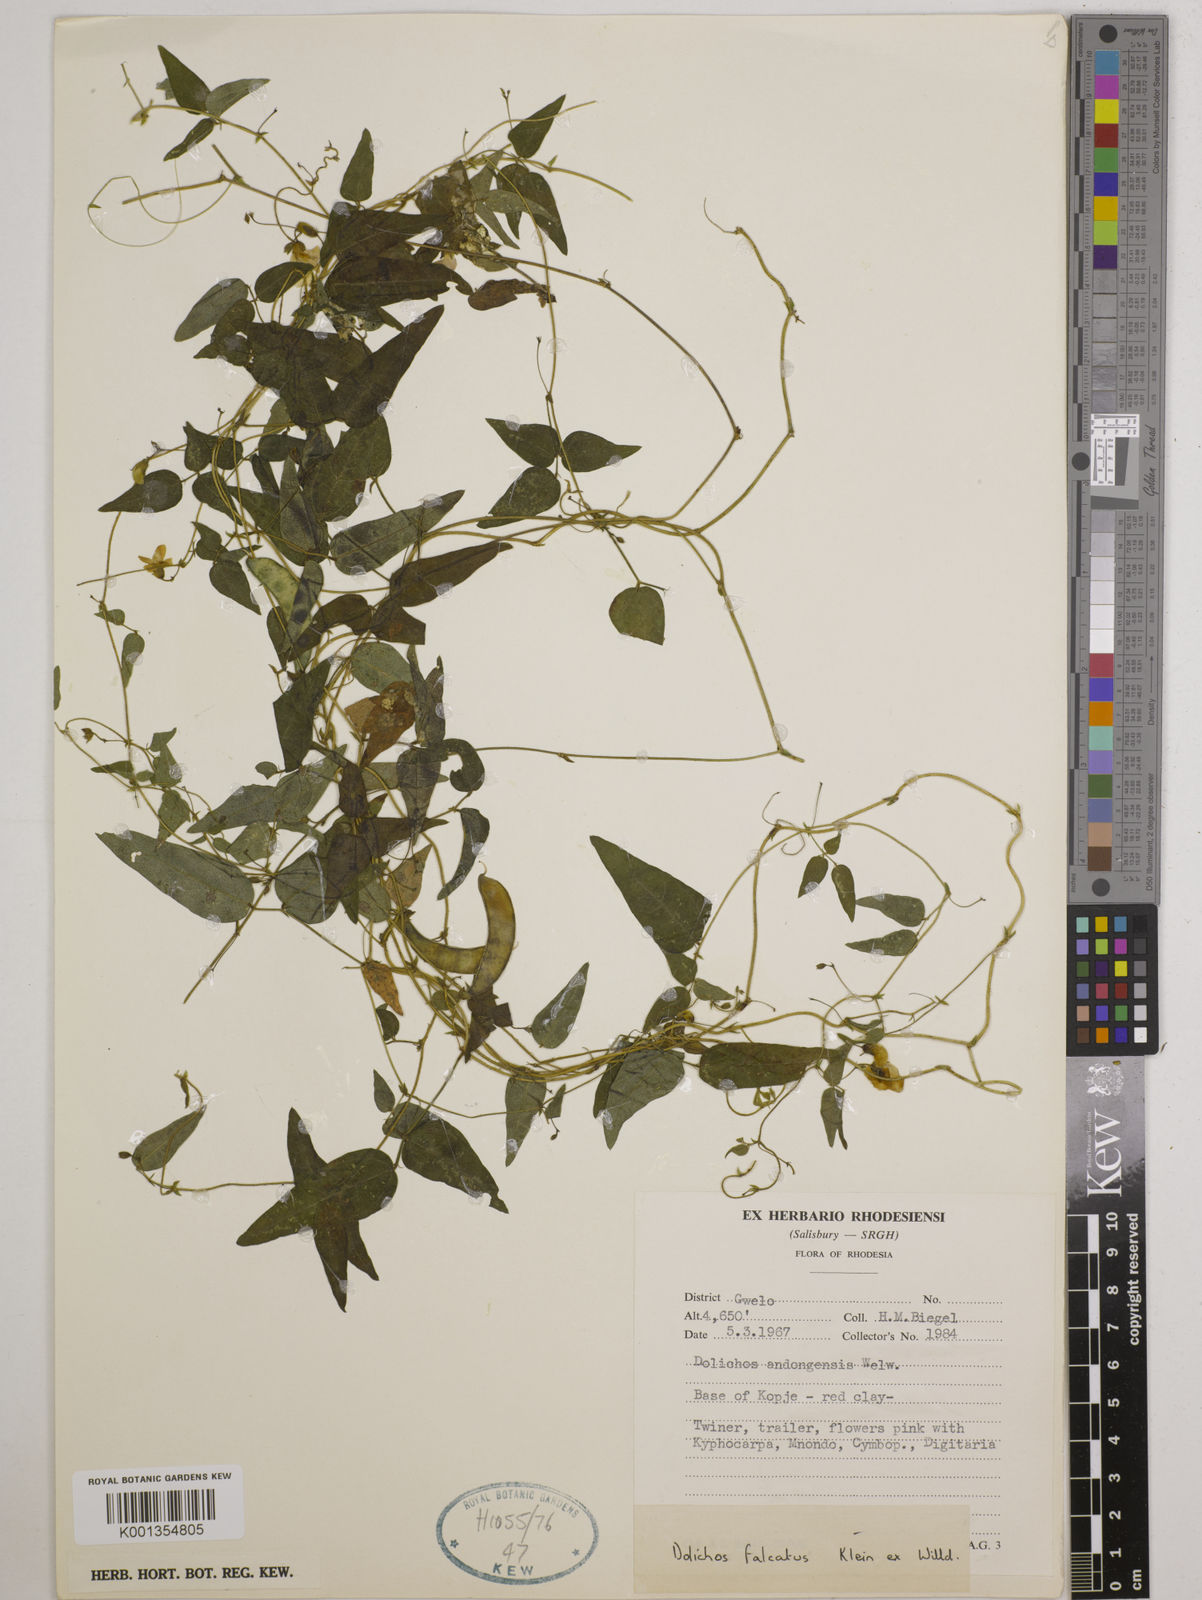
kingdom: Plantae
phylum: Tracheophyta
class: Magnoliopsida
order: Fabales
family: Fabaceae
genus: Dolichos
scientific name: Dolichos
